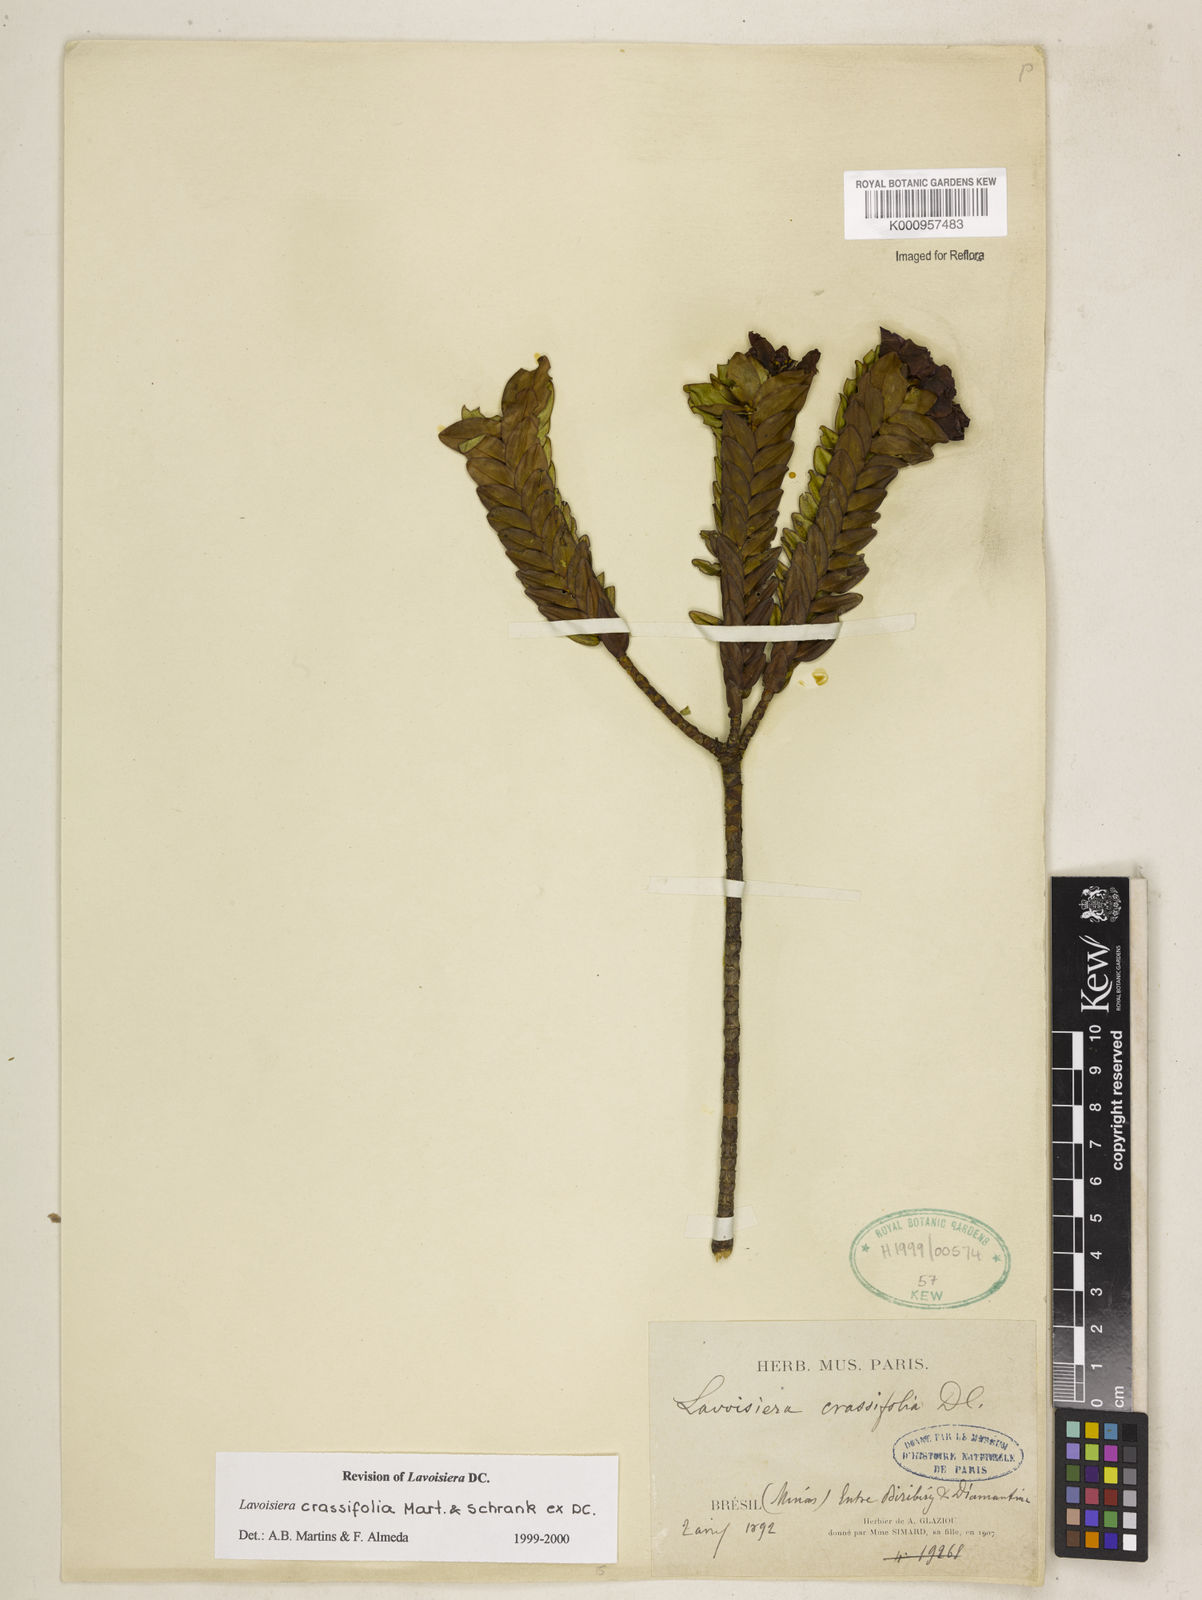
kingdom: Plantae
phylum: Tracheophyta
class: Magnoliopsida
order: Myrtales
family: Melastomataceae
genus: Microlicia
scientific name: Microlicia crassifolia
